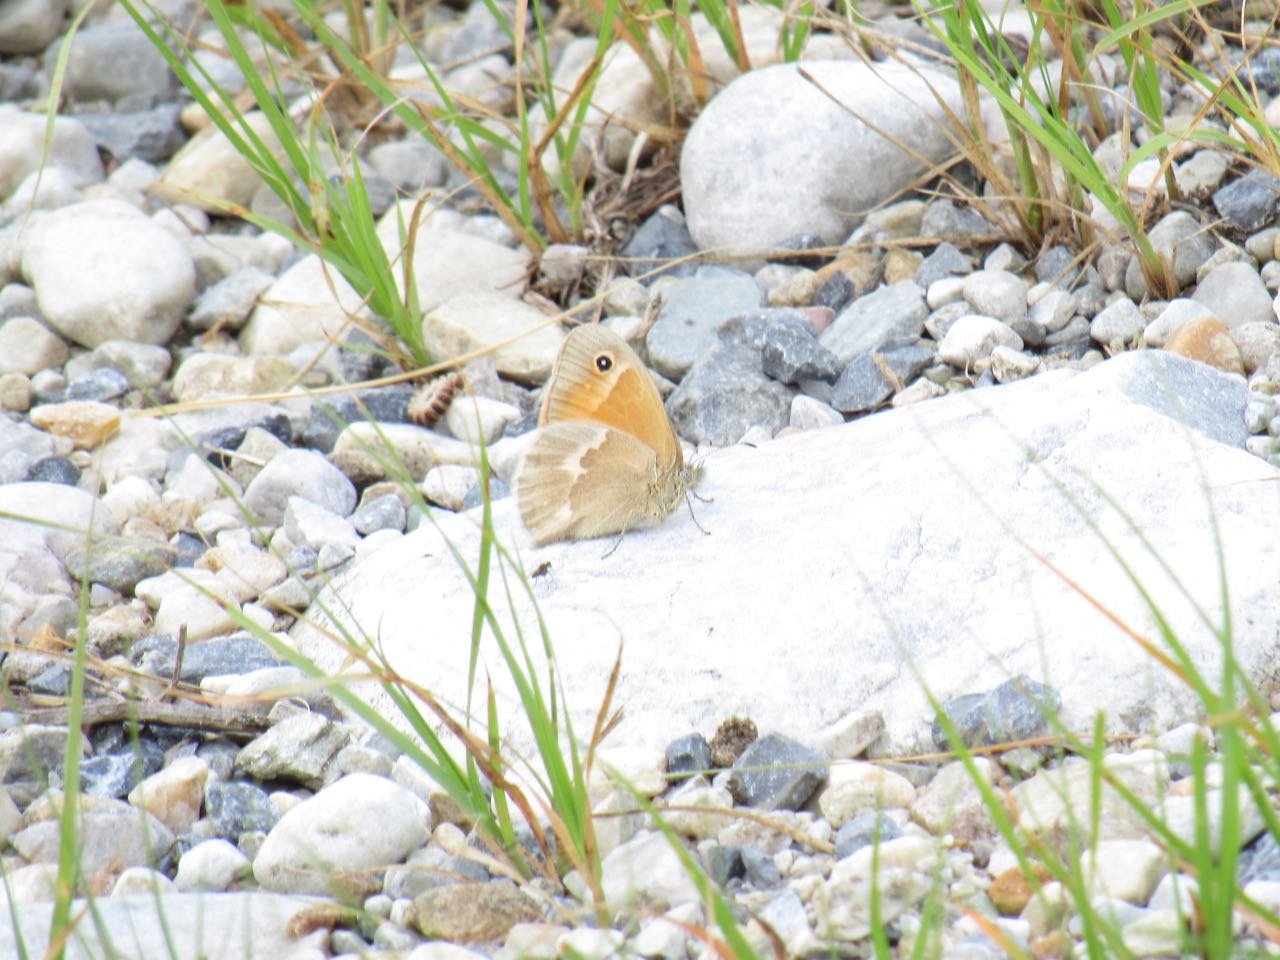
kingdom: Animalia
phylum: Arthropoda
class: Insecta
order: Lepidoptera
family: Nymphalidae
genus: Coenonympha
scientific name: Coenonympha tullia
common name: Large Heath
